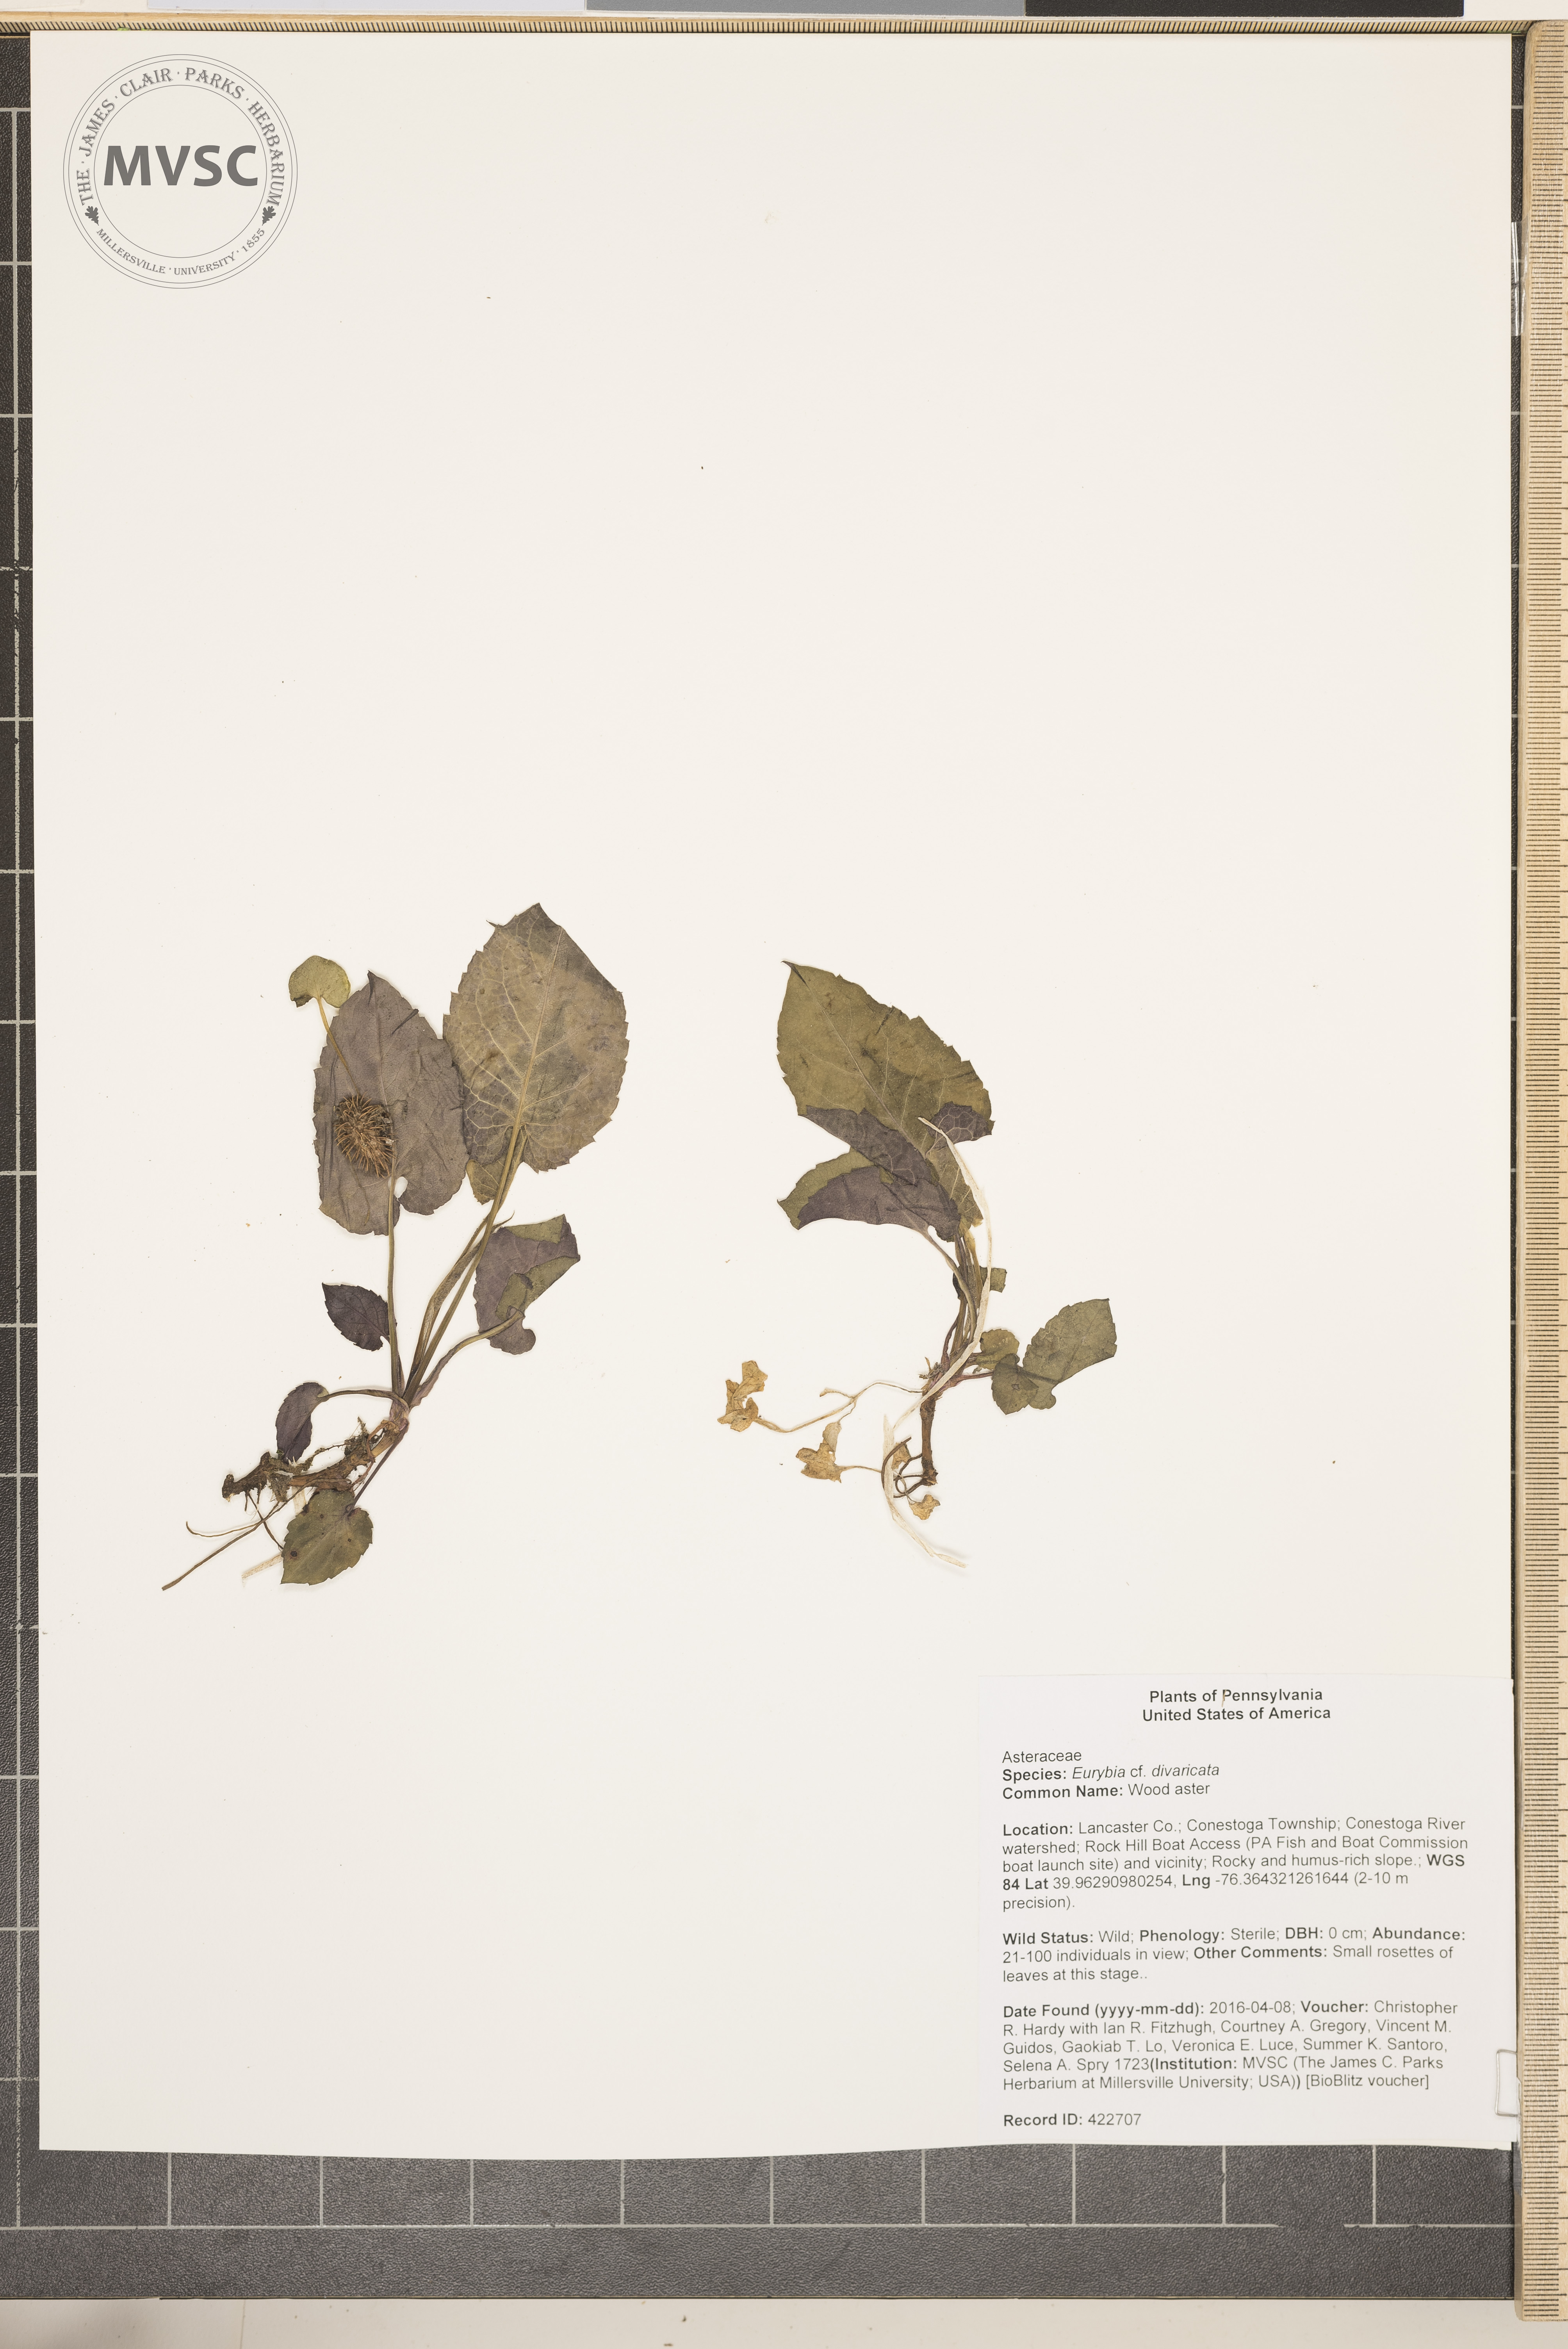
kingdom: Plantae
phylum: Tracheophyta
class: Magnoliopsida
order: Asterales
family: Asteraceae
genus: Eurybia
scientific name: Eurybia divaricata
